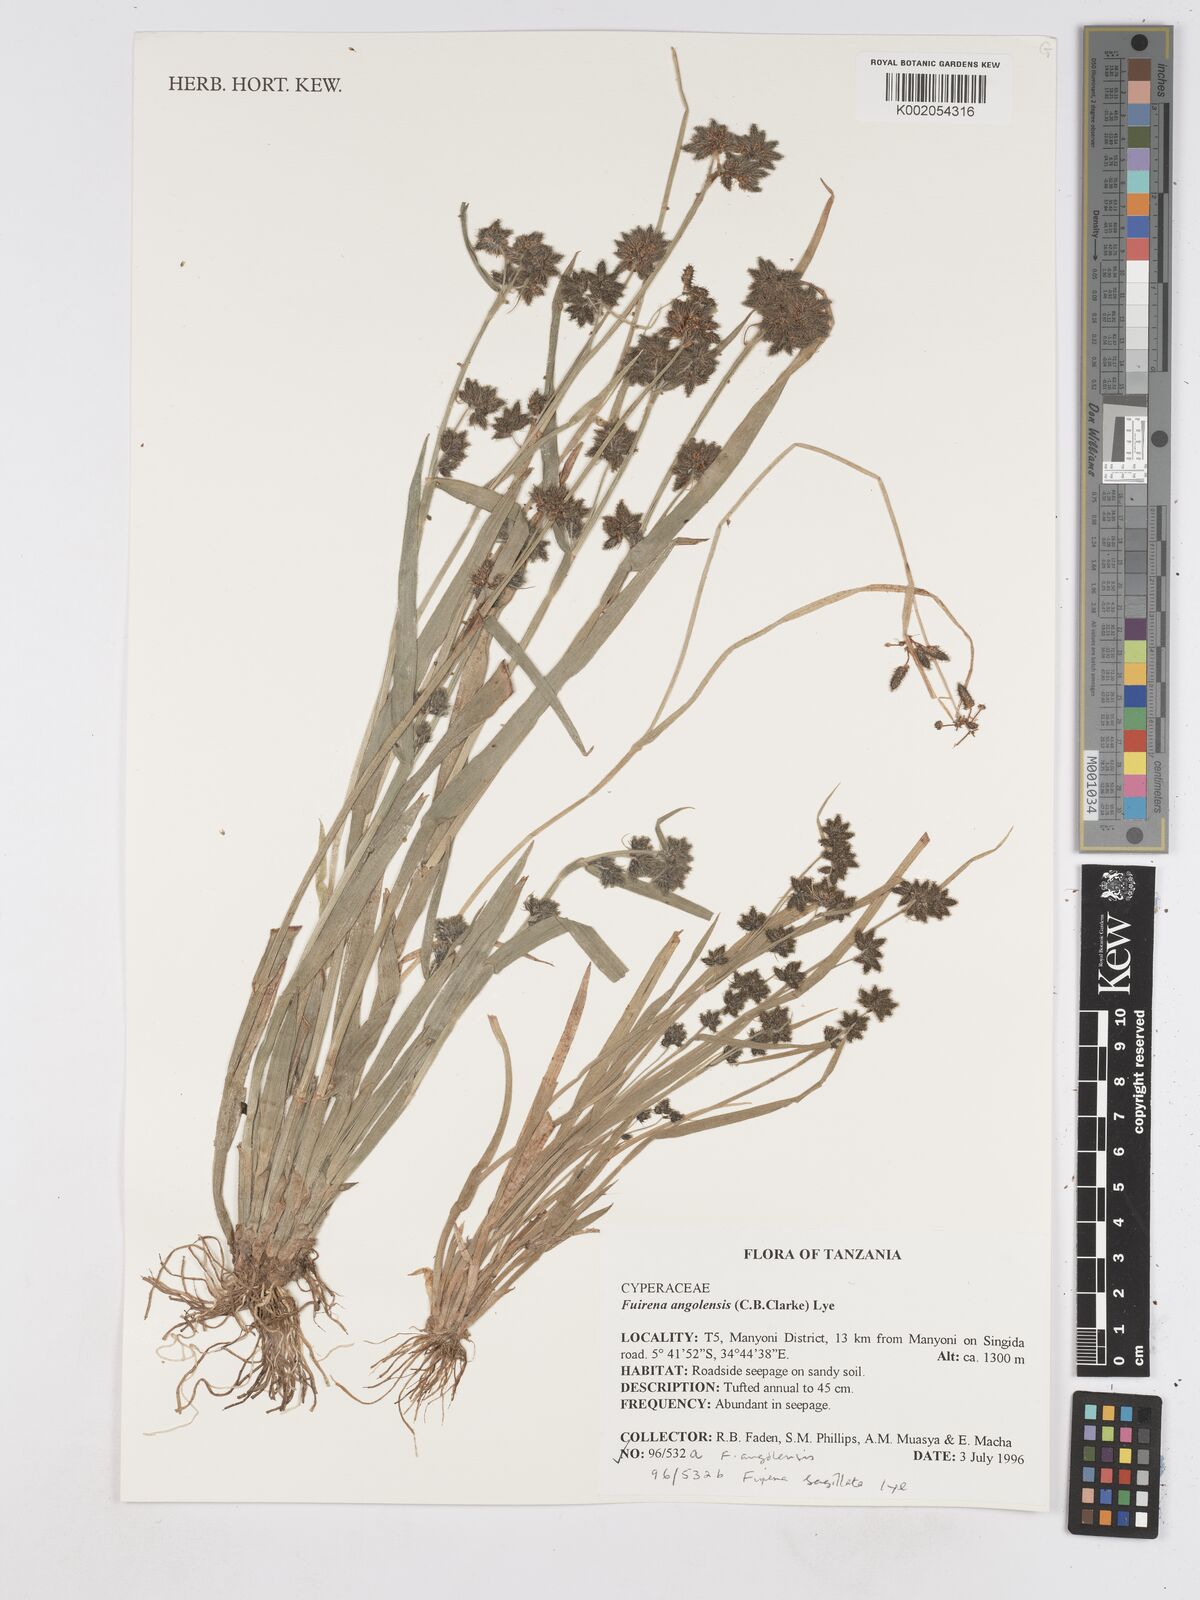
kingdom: Plantae
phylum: Tracheophyta
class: Liliopsida
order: Poales
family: Cyperaceae
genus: Fuirena
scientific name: Fuirena angolensis
